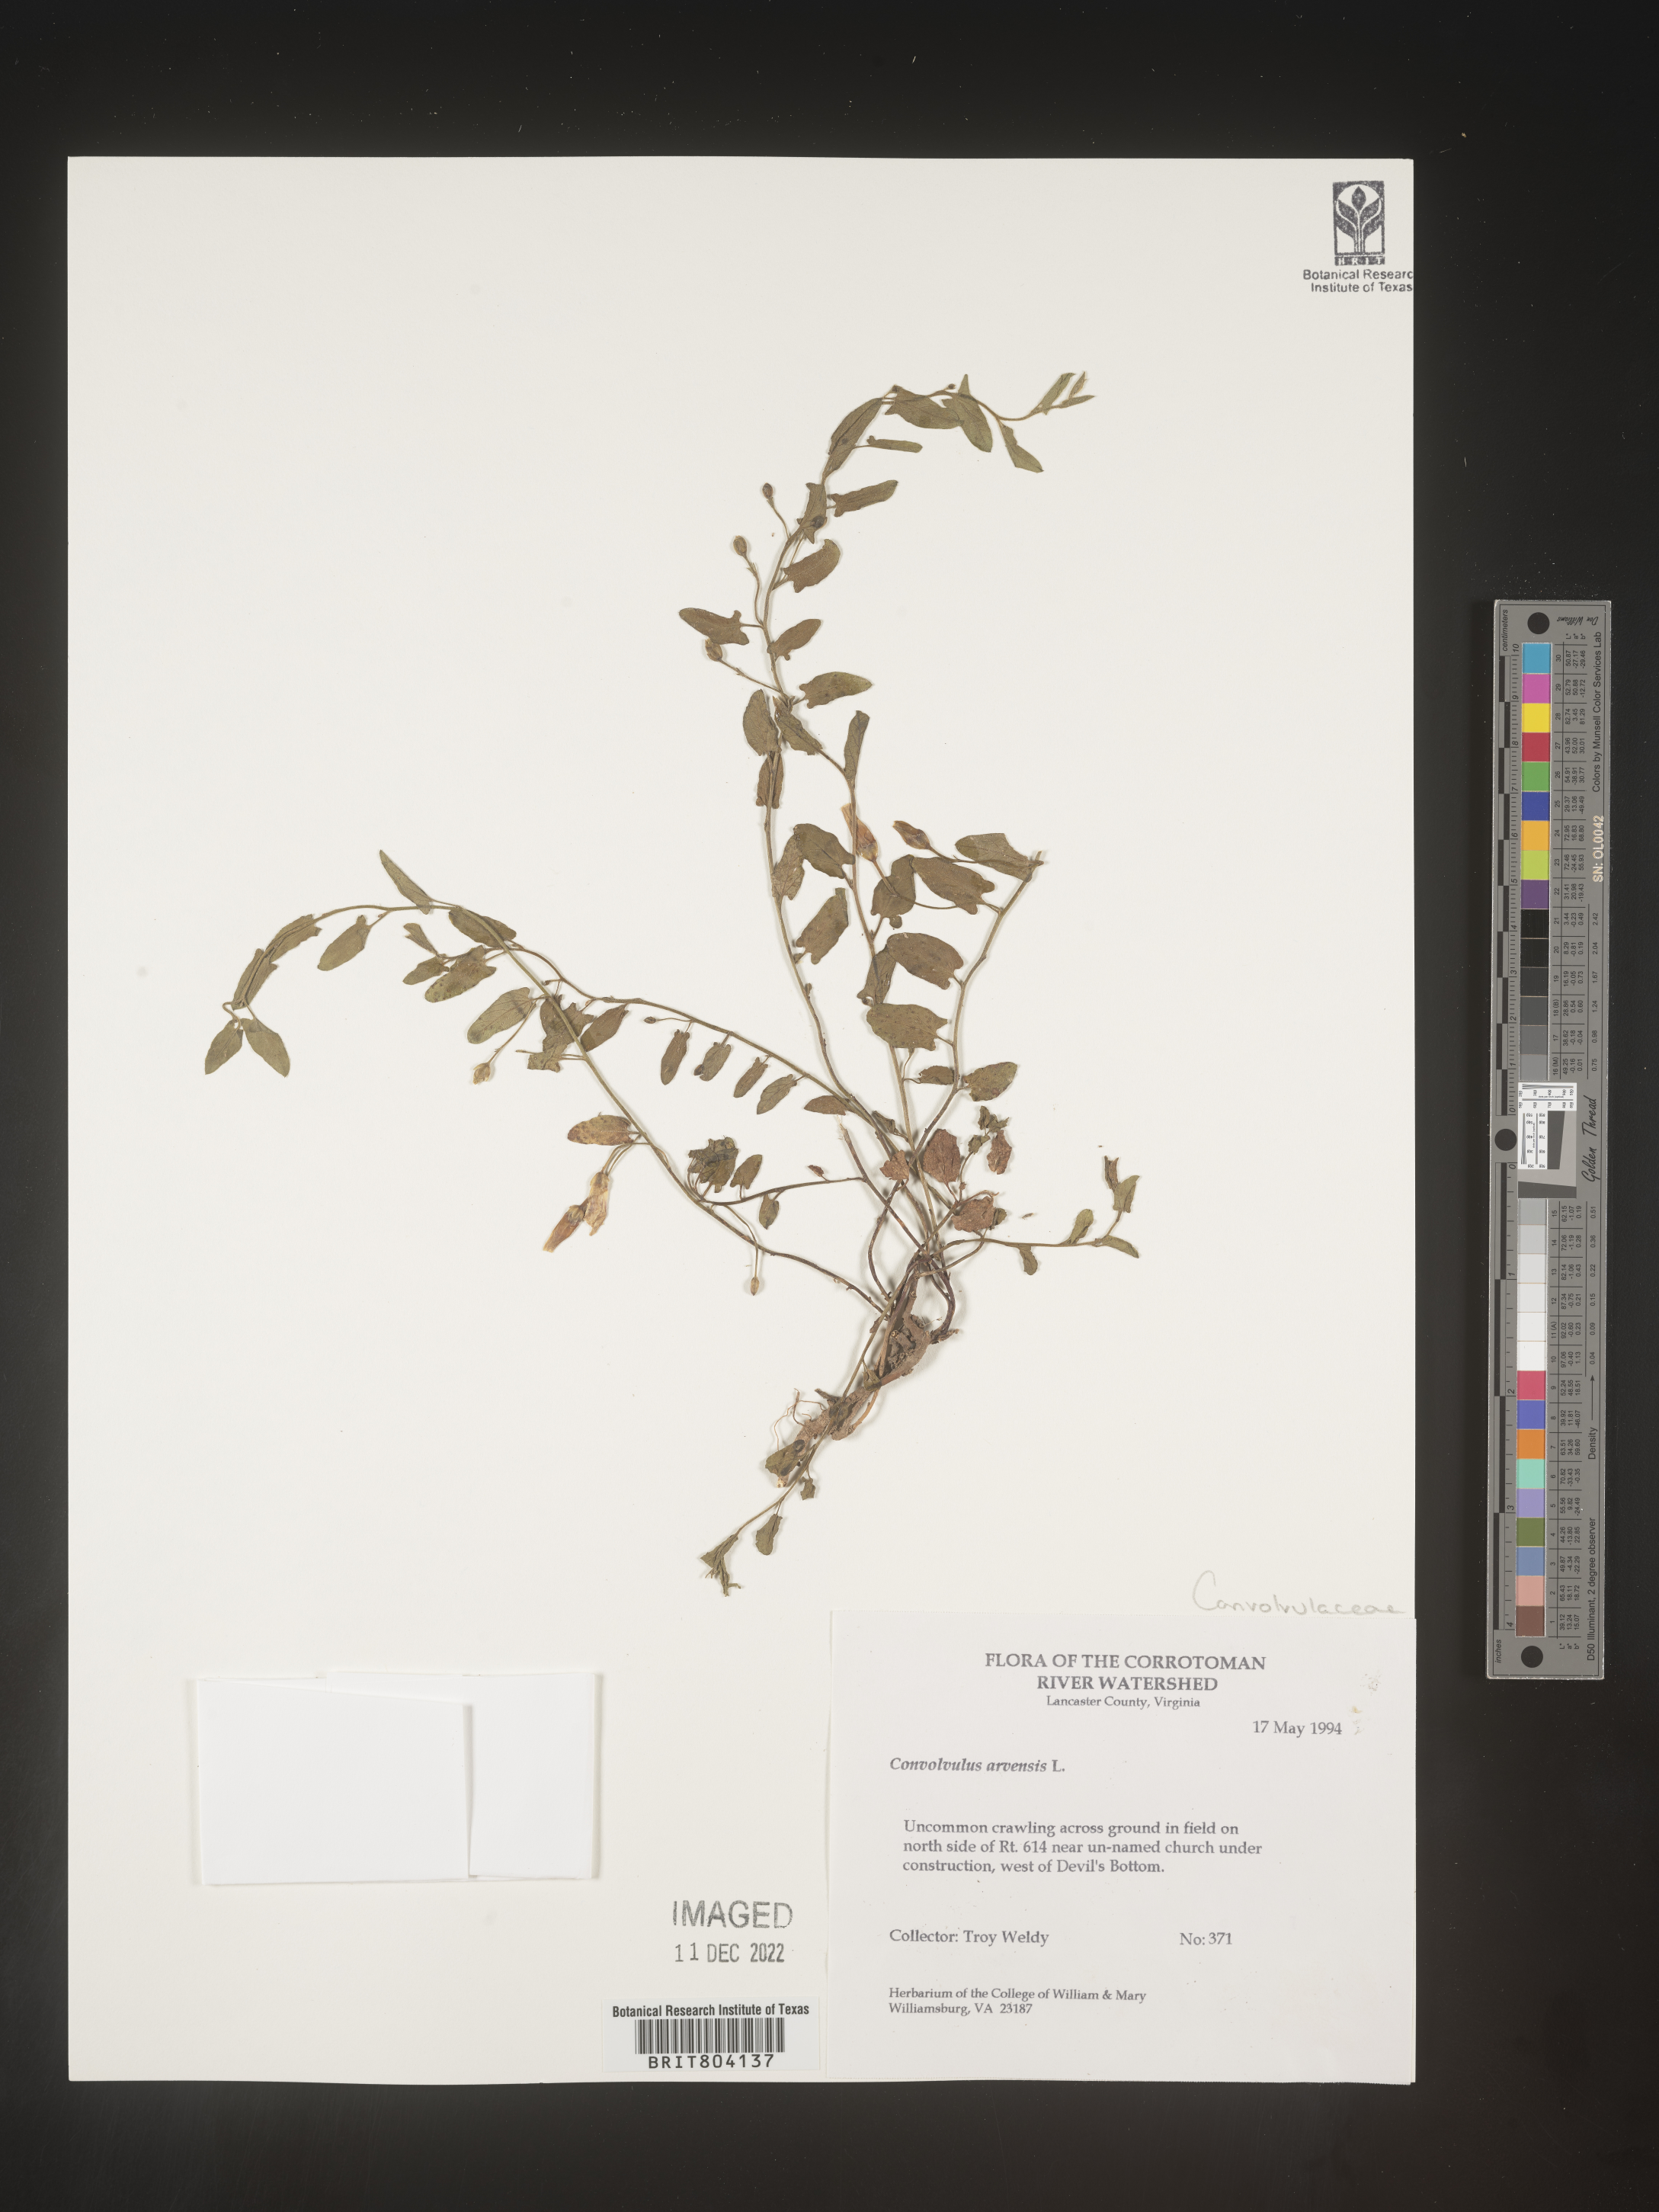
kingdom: Plantae
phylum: Tracheophyta
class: Magnoliopsida
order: Solanales
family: Convolvulaceae
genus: Convolvulus
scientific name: Convolvulus arvensis
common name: Field bindweed
